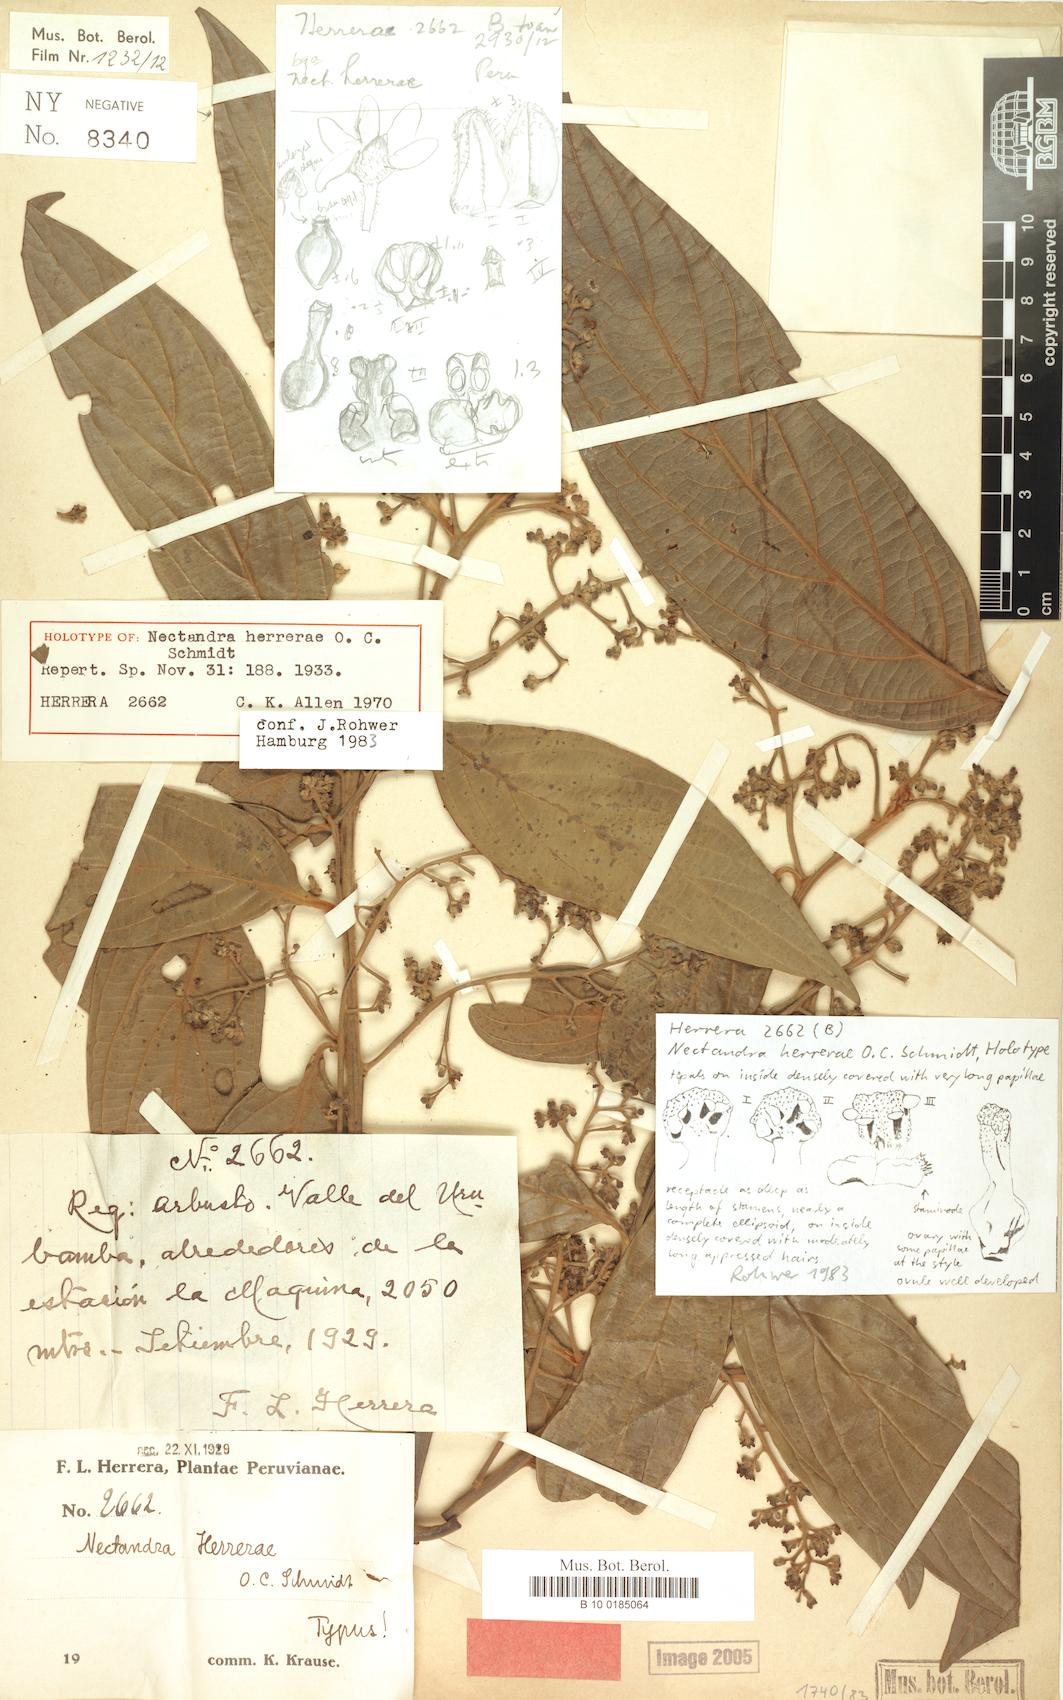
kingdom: Plantae
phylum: Tracheophyta
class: Magnoliopsida
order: Laurales
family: Lauraceae
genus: Nectandra
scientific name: Nectandra herrerae
